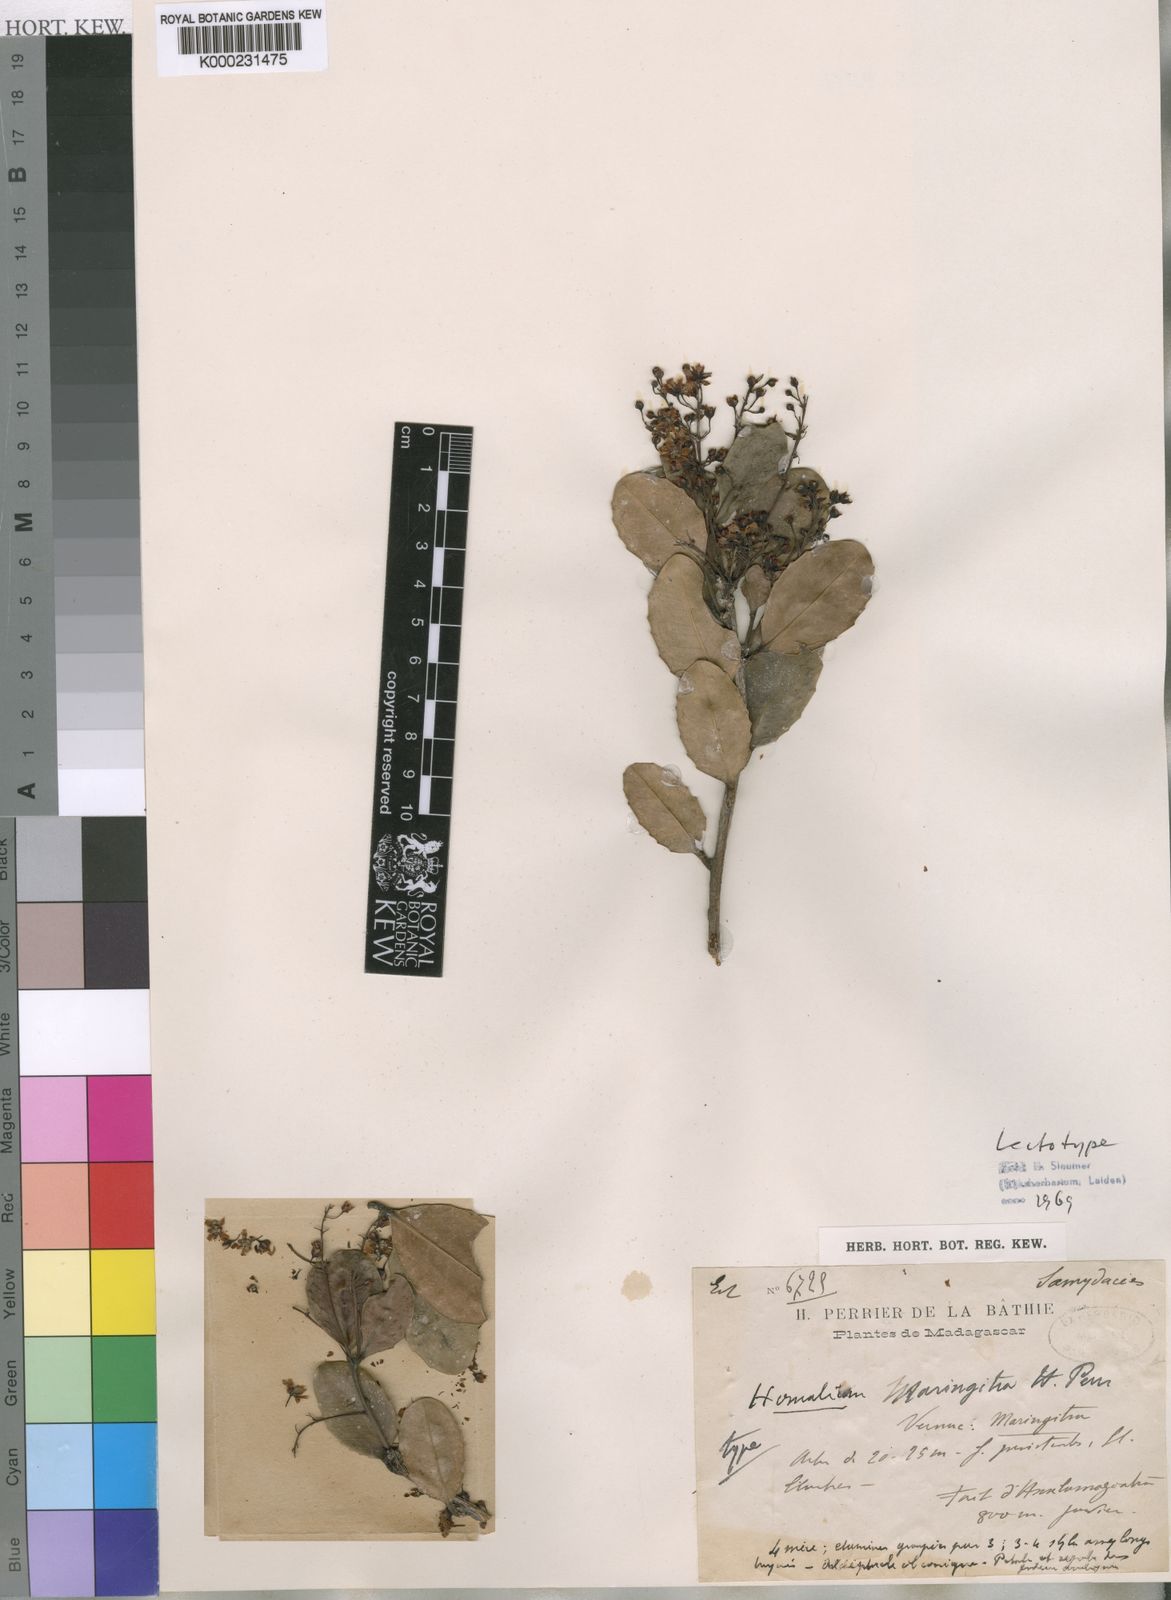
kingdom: Plantae
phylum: Tracheophyta
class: Magnoliopsida
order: Malpighiales
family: Salicaceae
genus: Homalium
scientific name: Homalium maringitra
